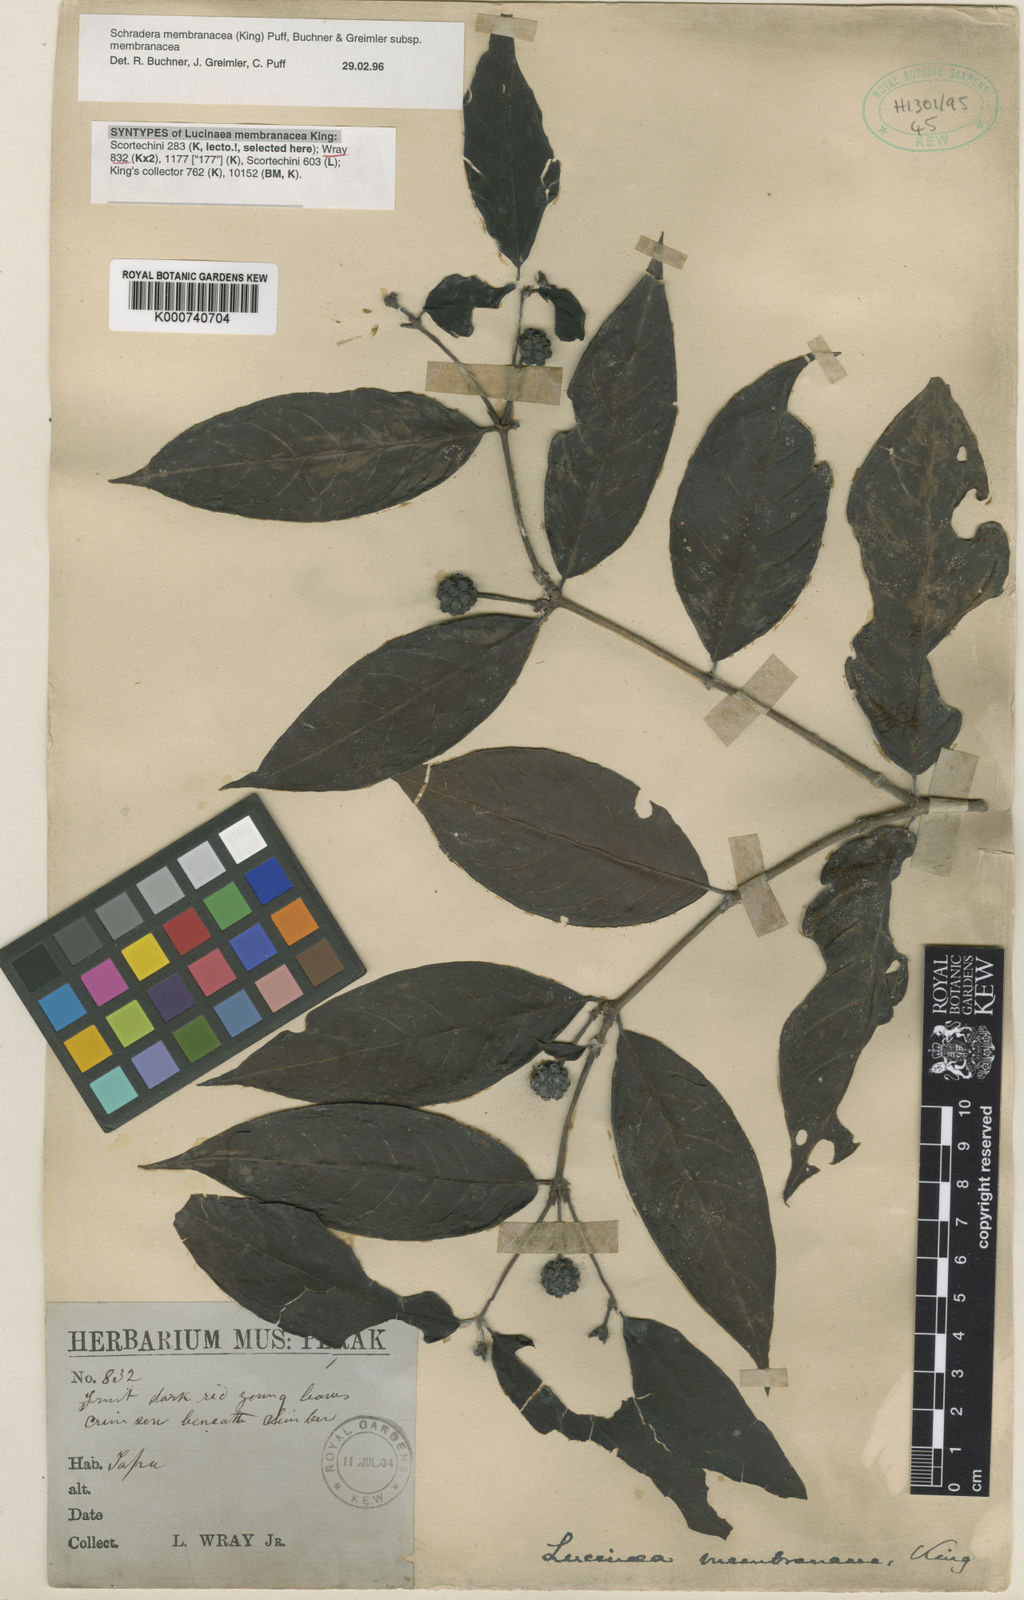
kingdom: Plantae
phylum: Tracheophyta
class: Magnoliopsida
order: Gentianales
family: Rubiaceae
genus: Schradera
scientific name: Schradera membranacea
